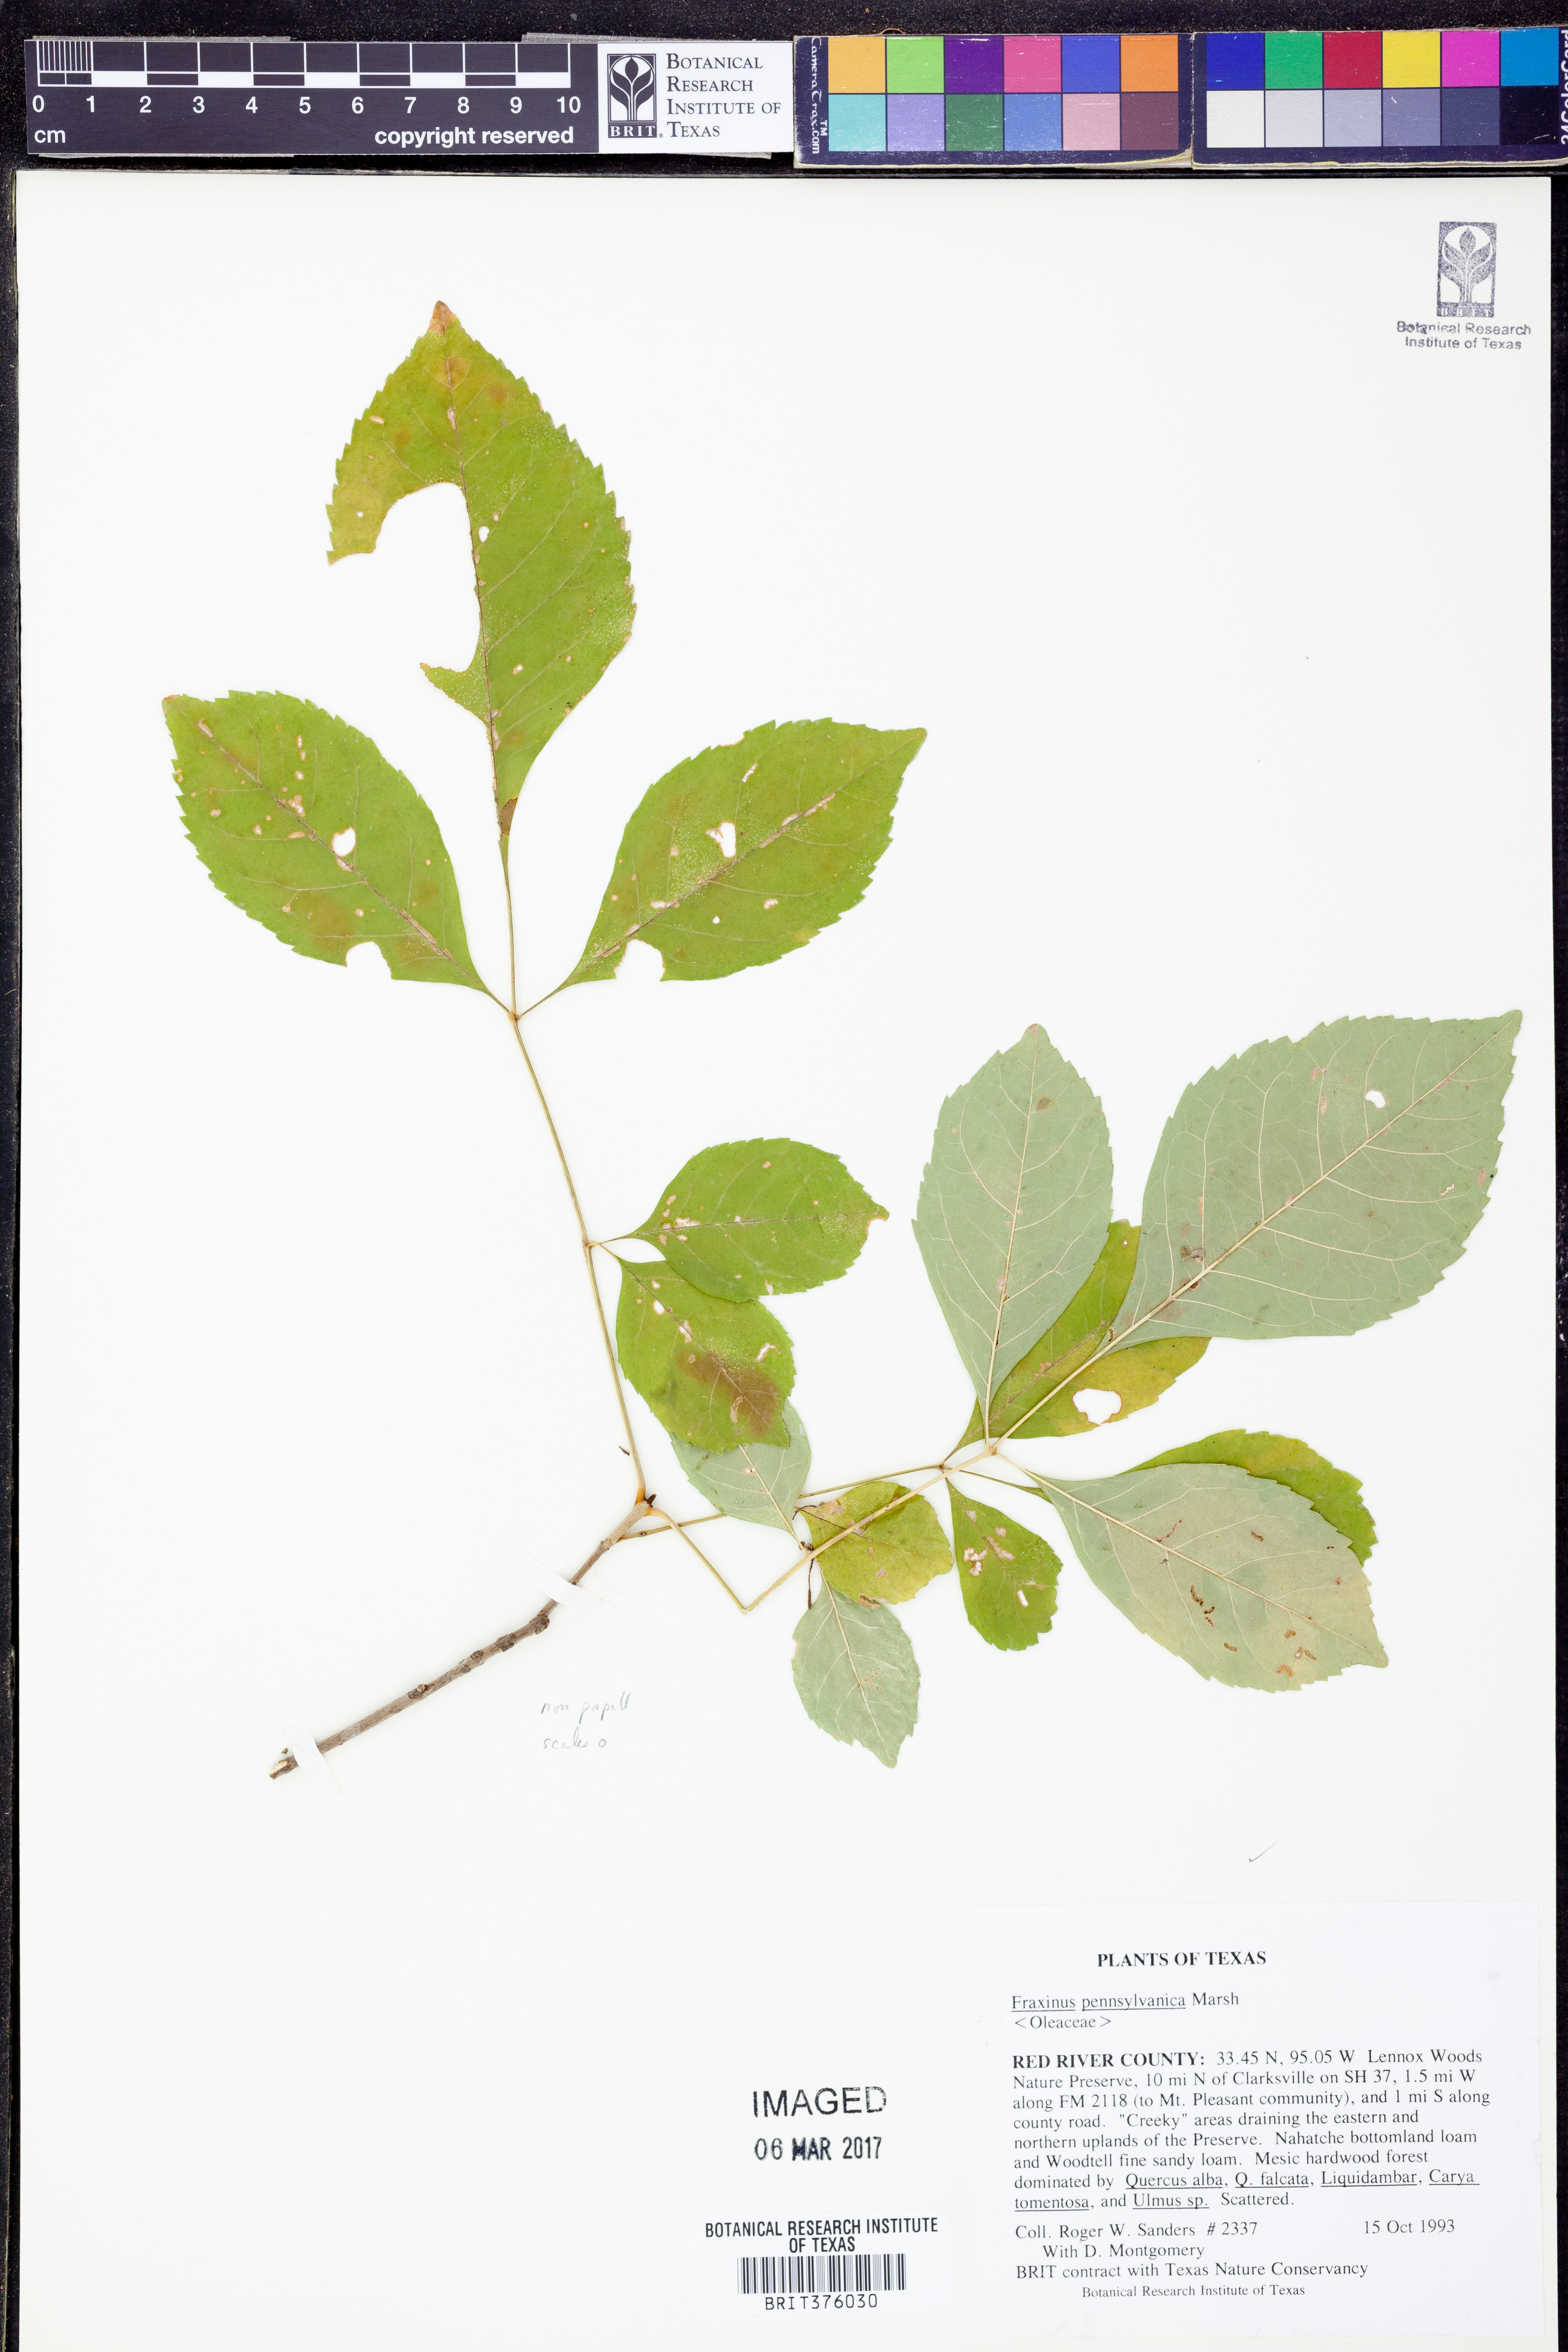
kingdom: Plantae
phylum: Tracheophyta
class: Magnoliopsida
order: Lamiales
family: Oleaceae
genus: Fraxinus
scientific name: Fraxinus pennsylvanica
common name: Green ash
